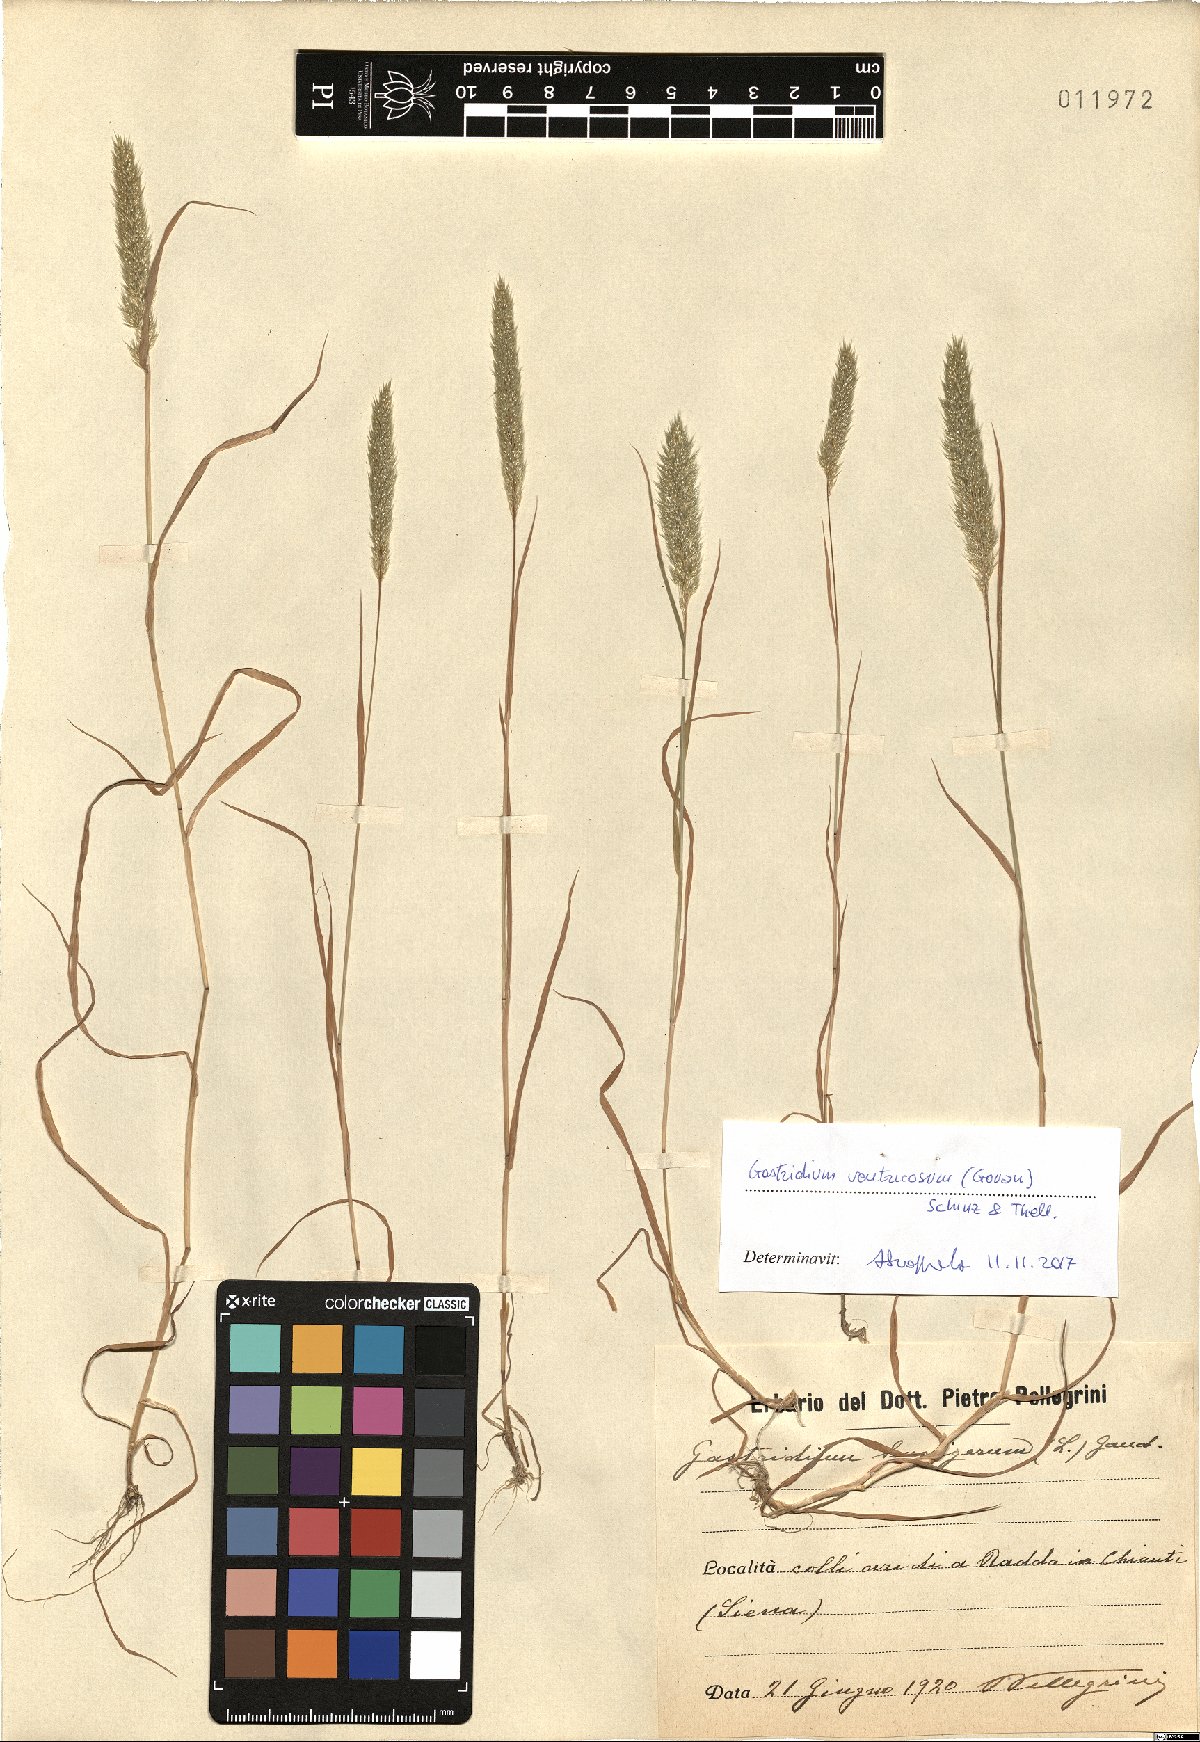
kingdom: Plantae
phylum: Tracheophyta
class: Liliopsida
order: Poales
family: Poaceae
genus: Gastridium
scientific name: Gastridium ventricosum
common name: Nit-grass
